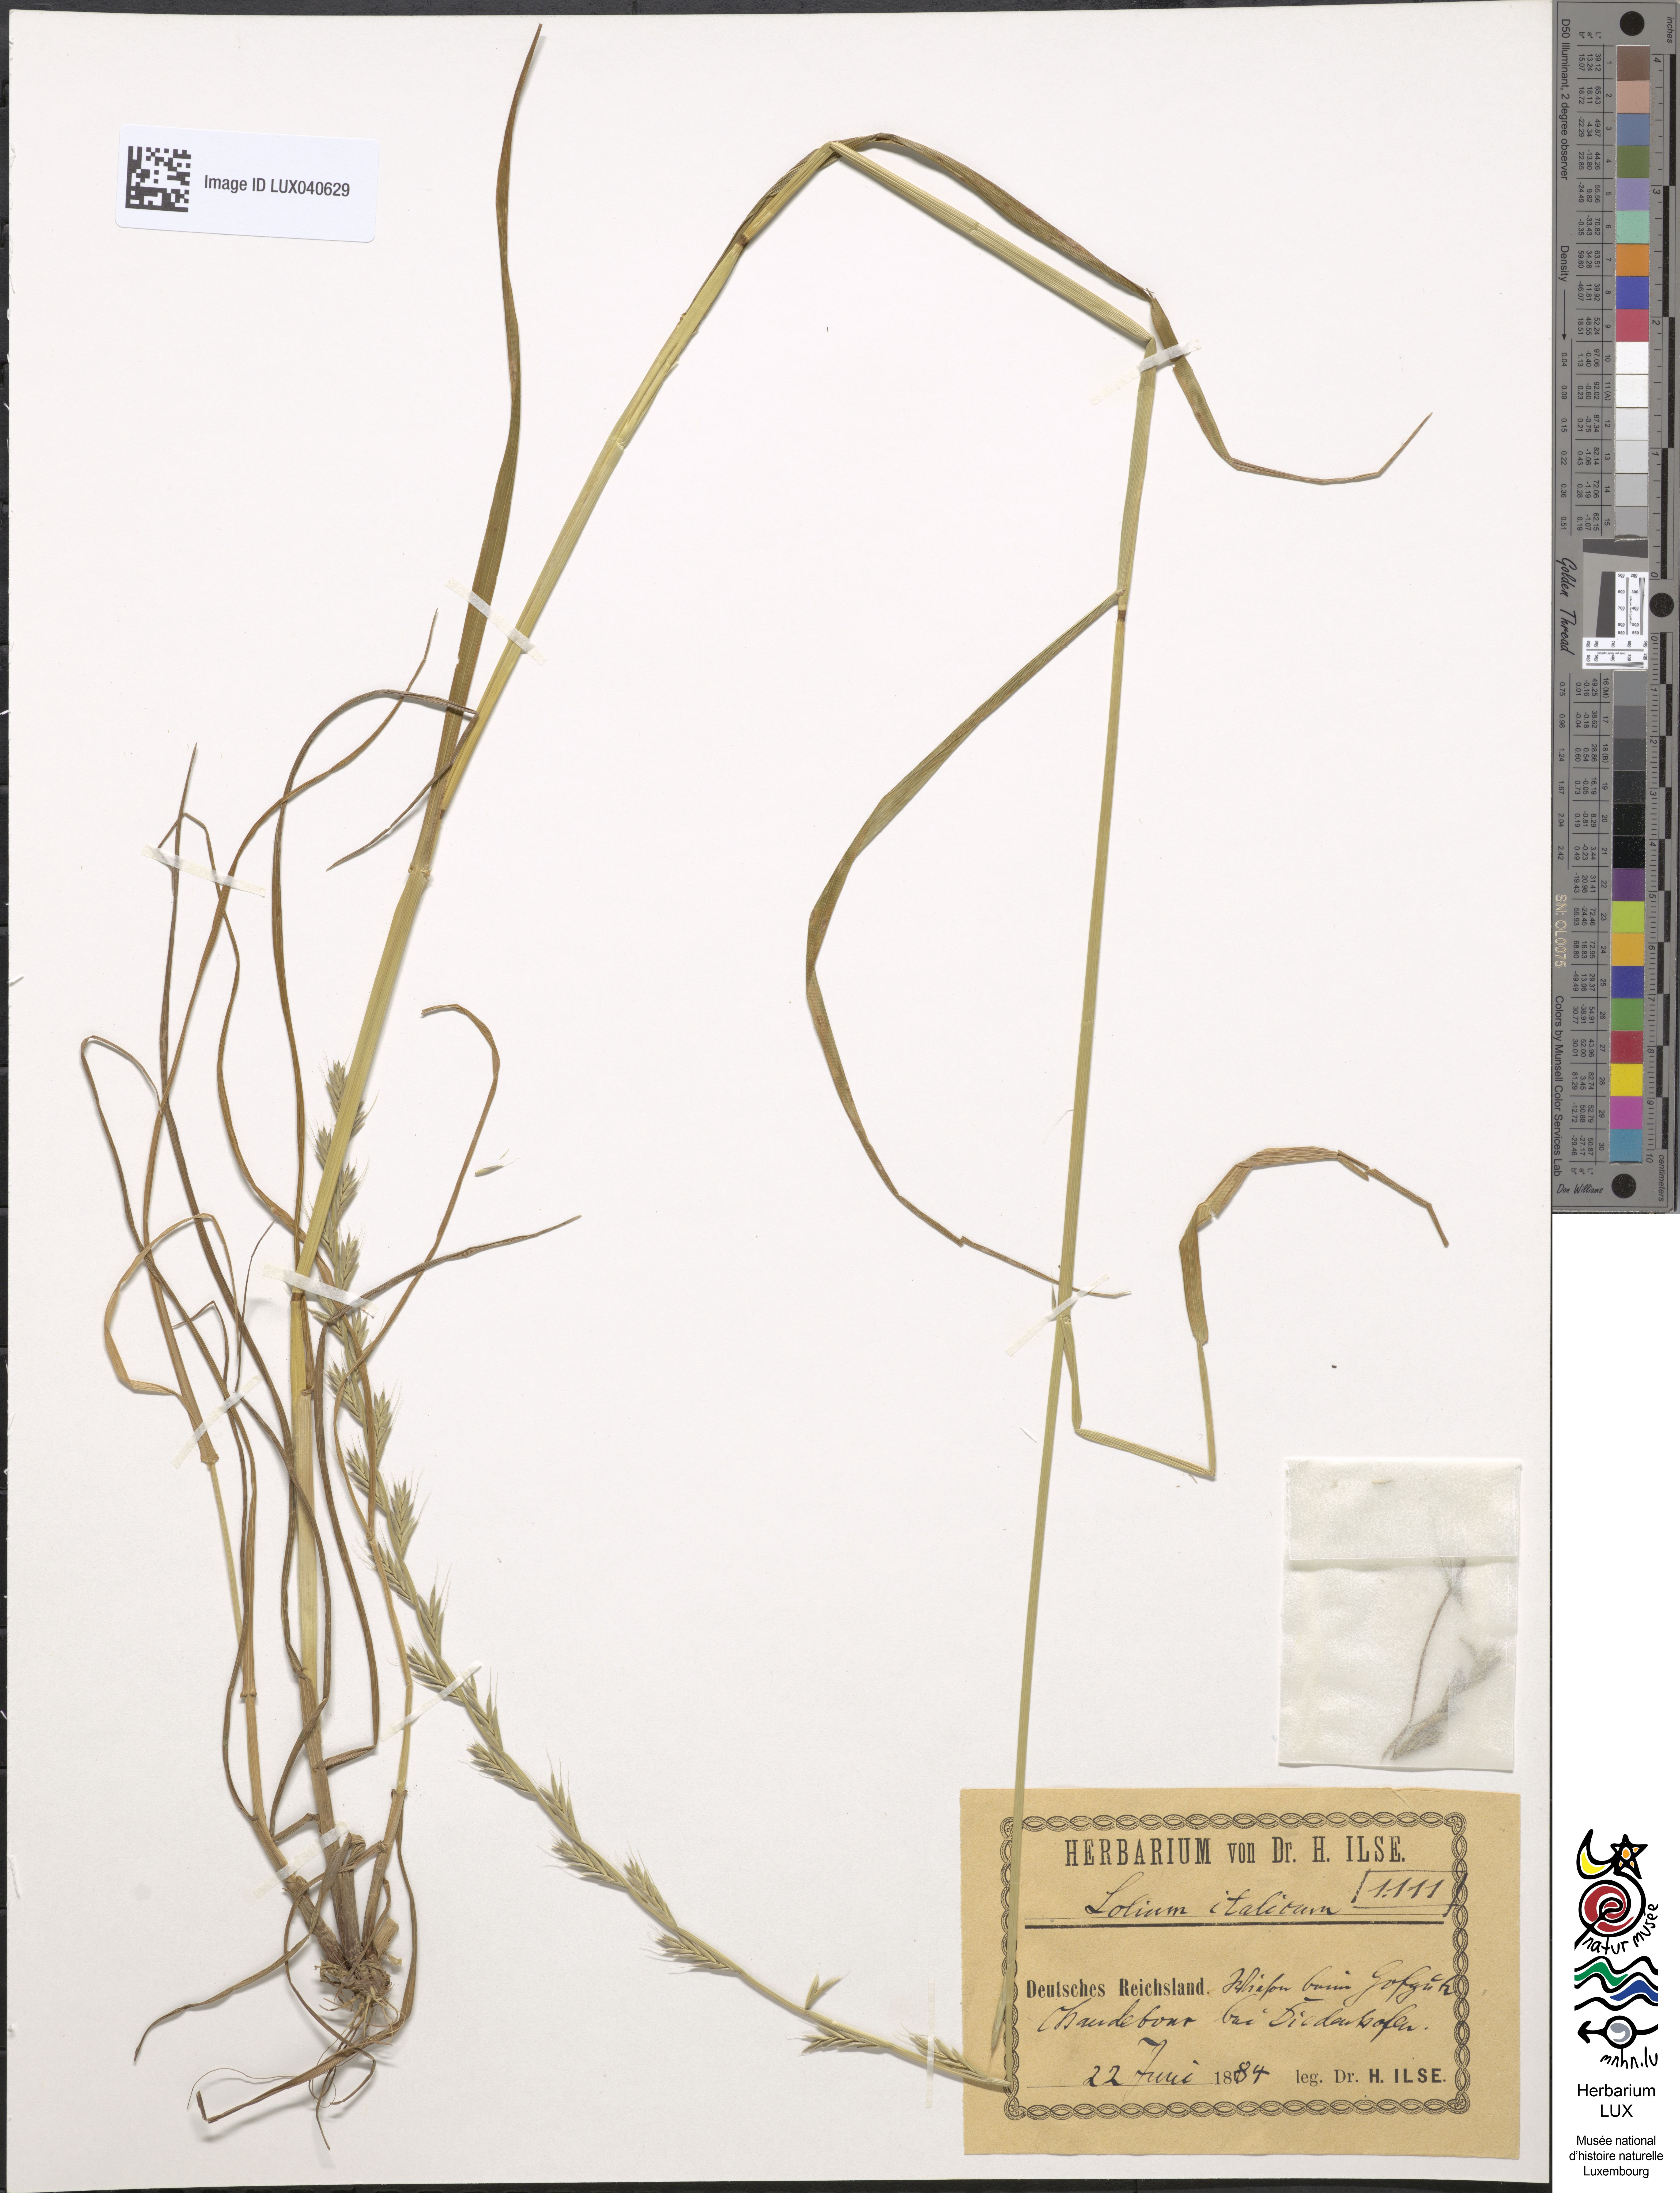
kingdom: Plantae
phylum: Tracheophyta
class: Liliopsida
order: Poales
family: Poaceae
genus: Lolium
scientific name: Lolium multiflorum
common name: Annual ryegrass
